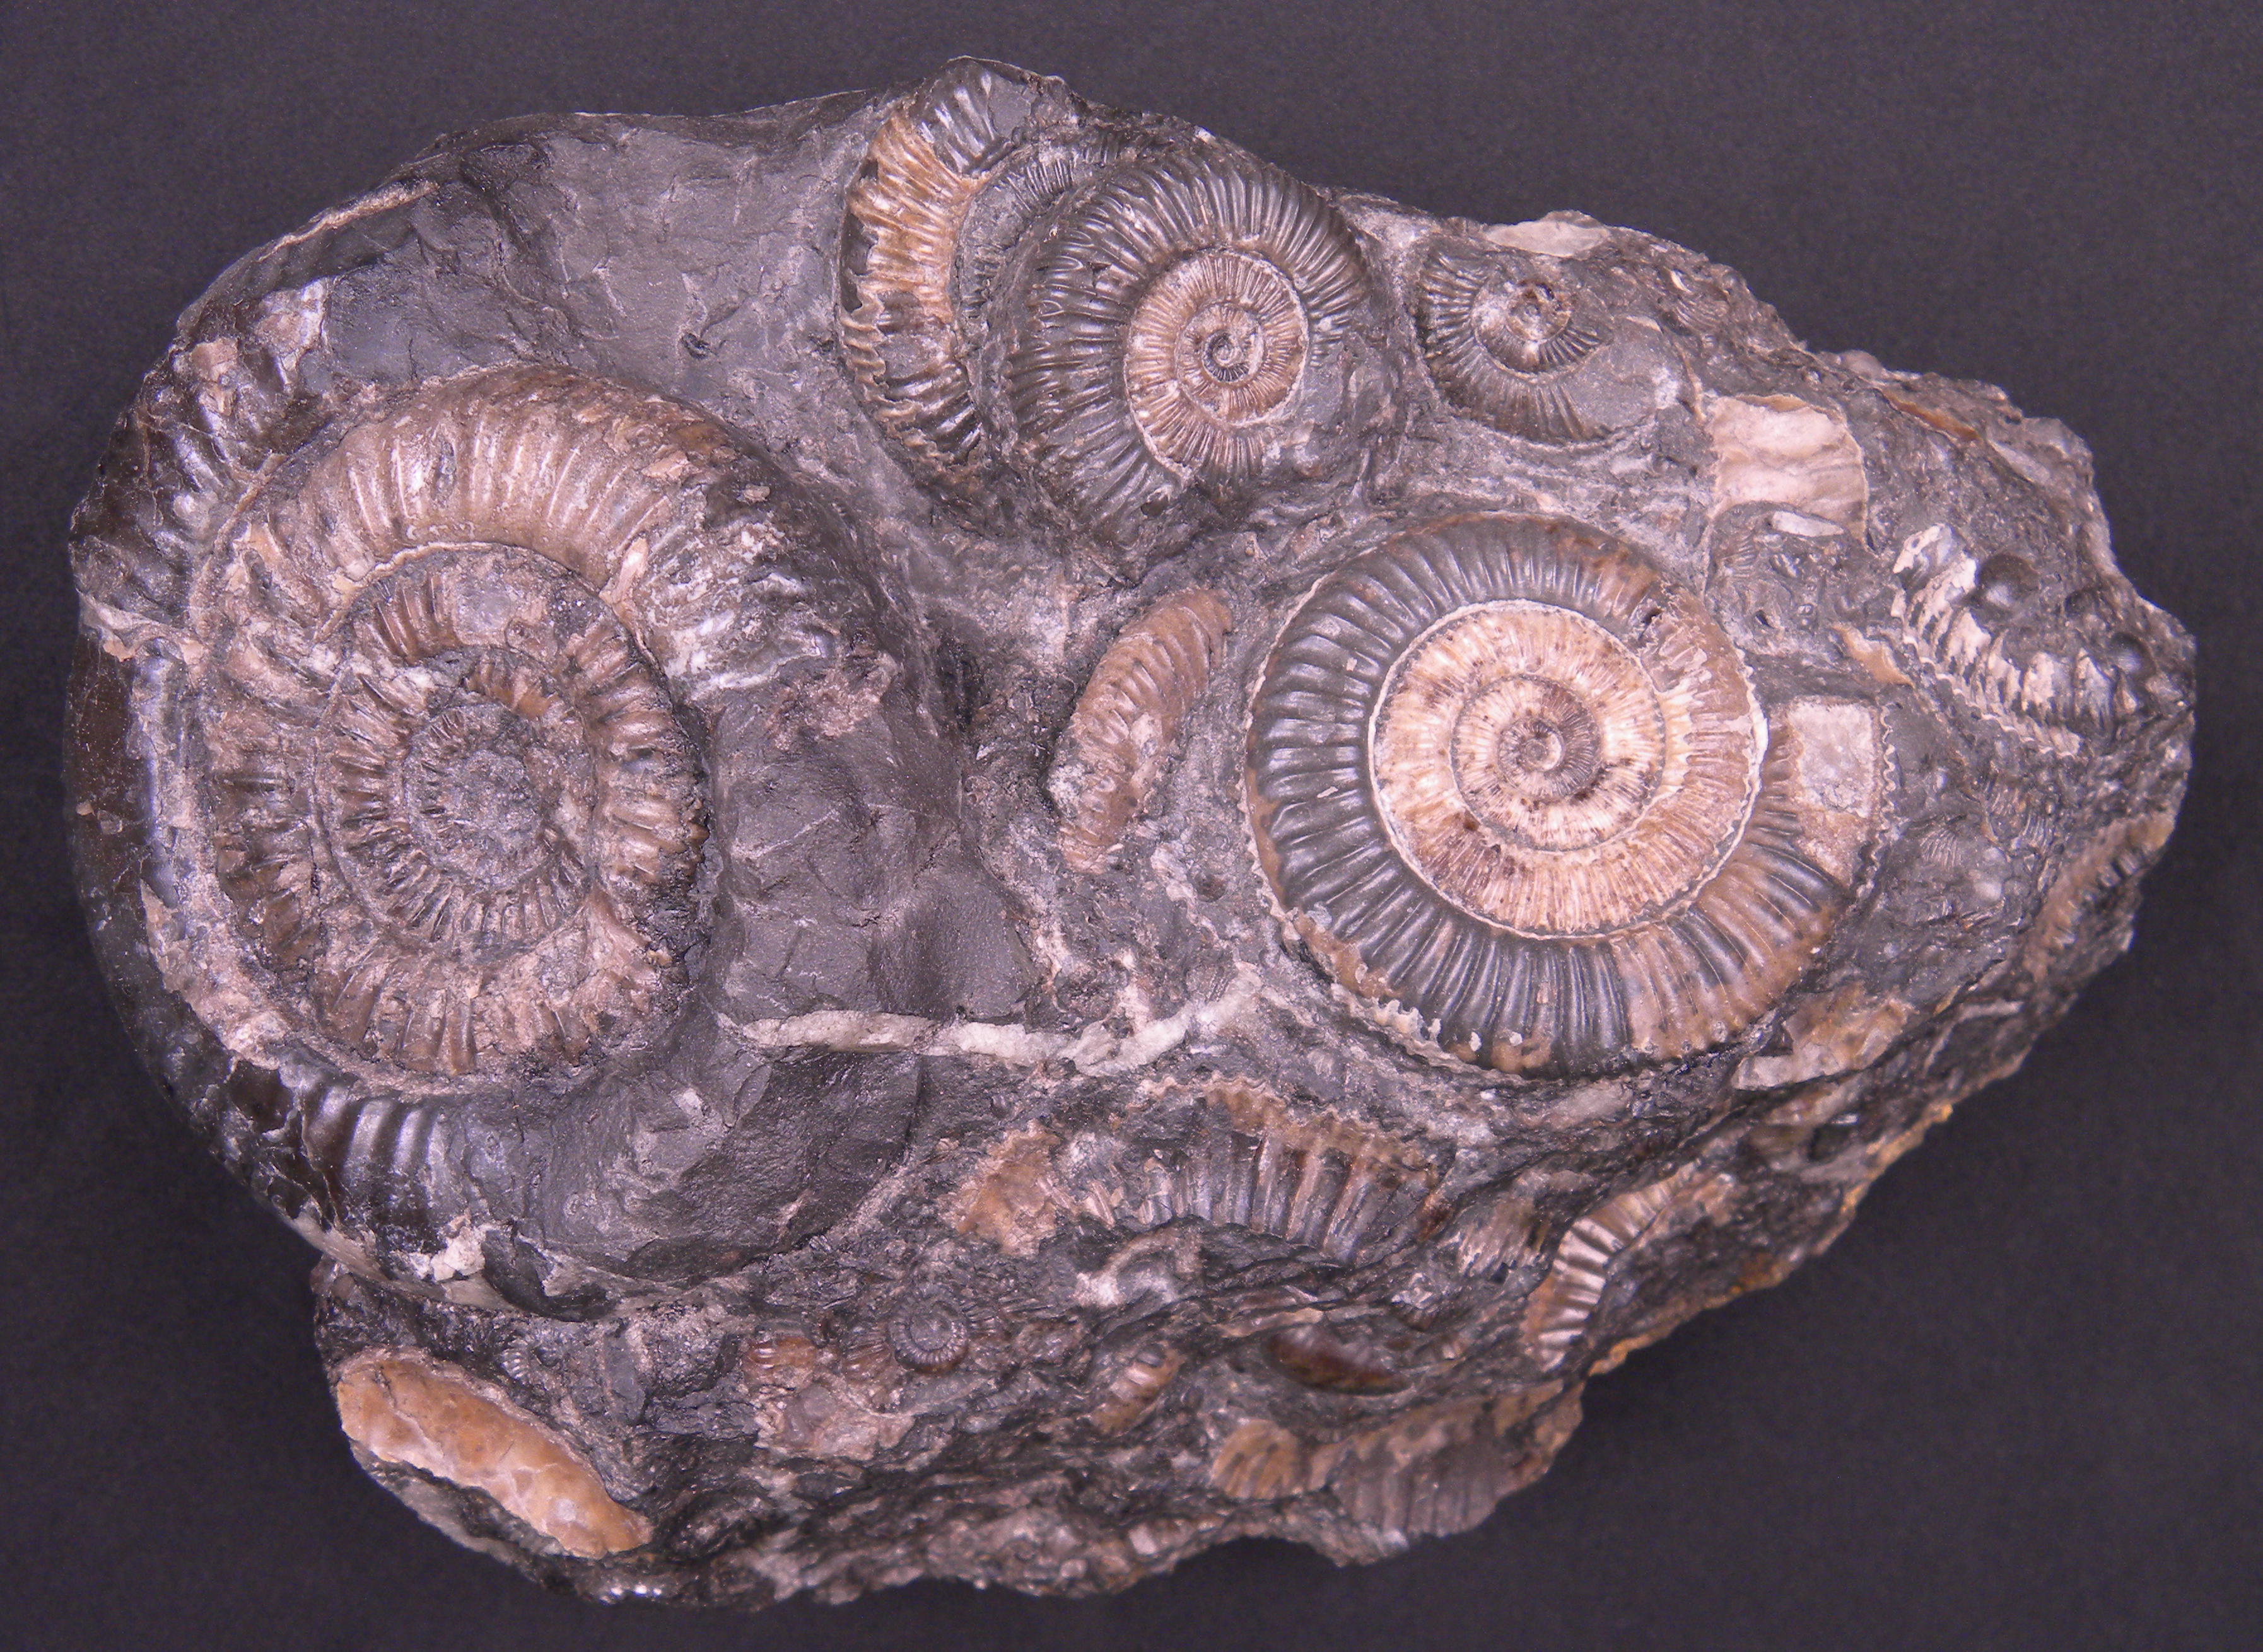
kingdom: Animalia
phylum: Mollusca
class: Cephalopoda
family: Dactylioceratidae
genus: Dactylioceras
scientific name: Dactylioceras crassiusculum
